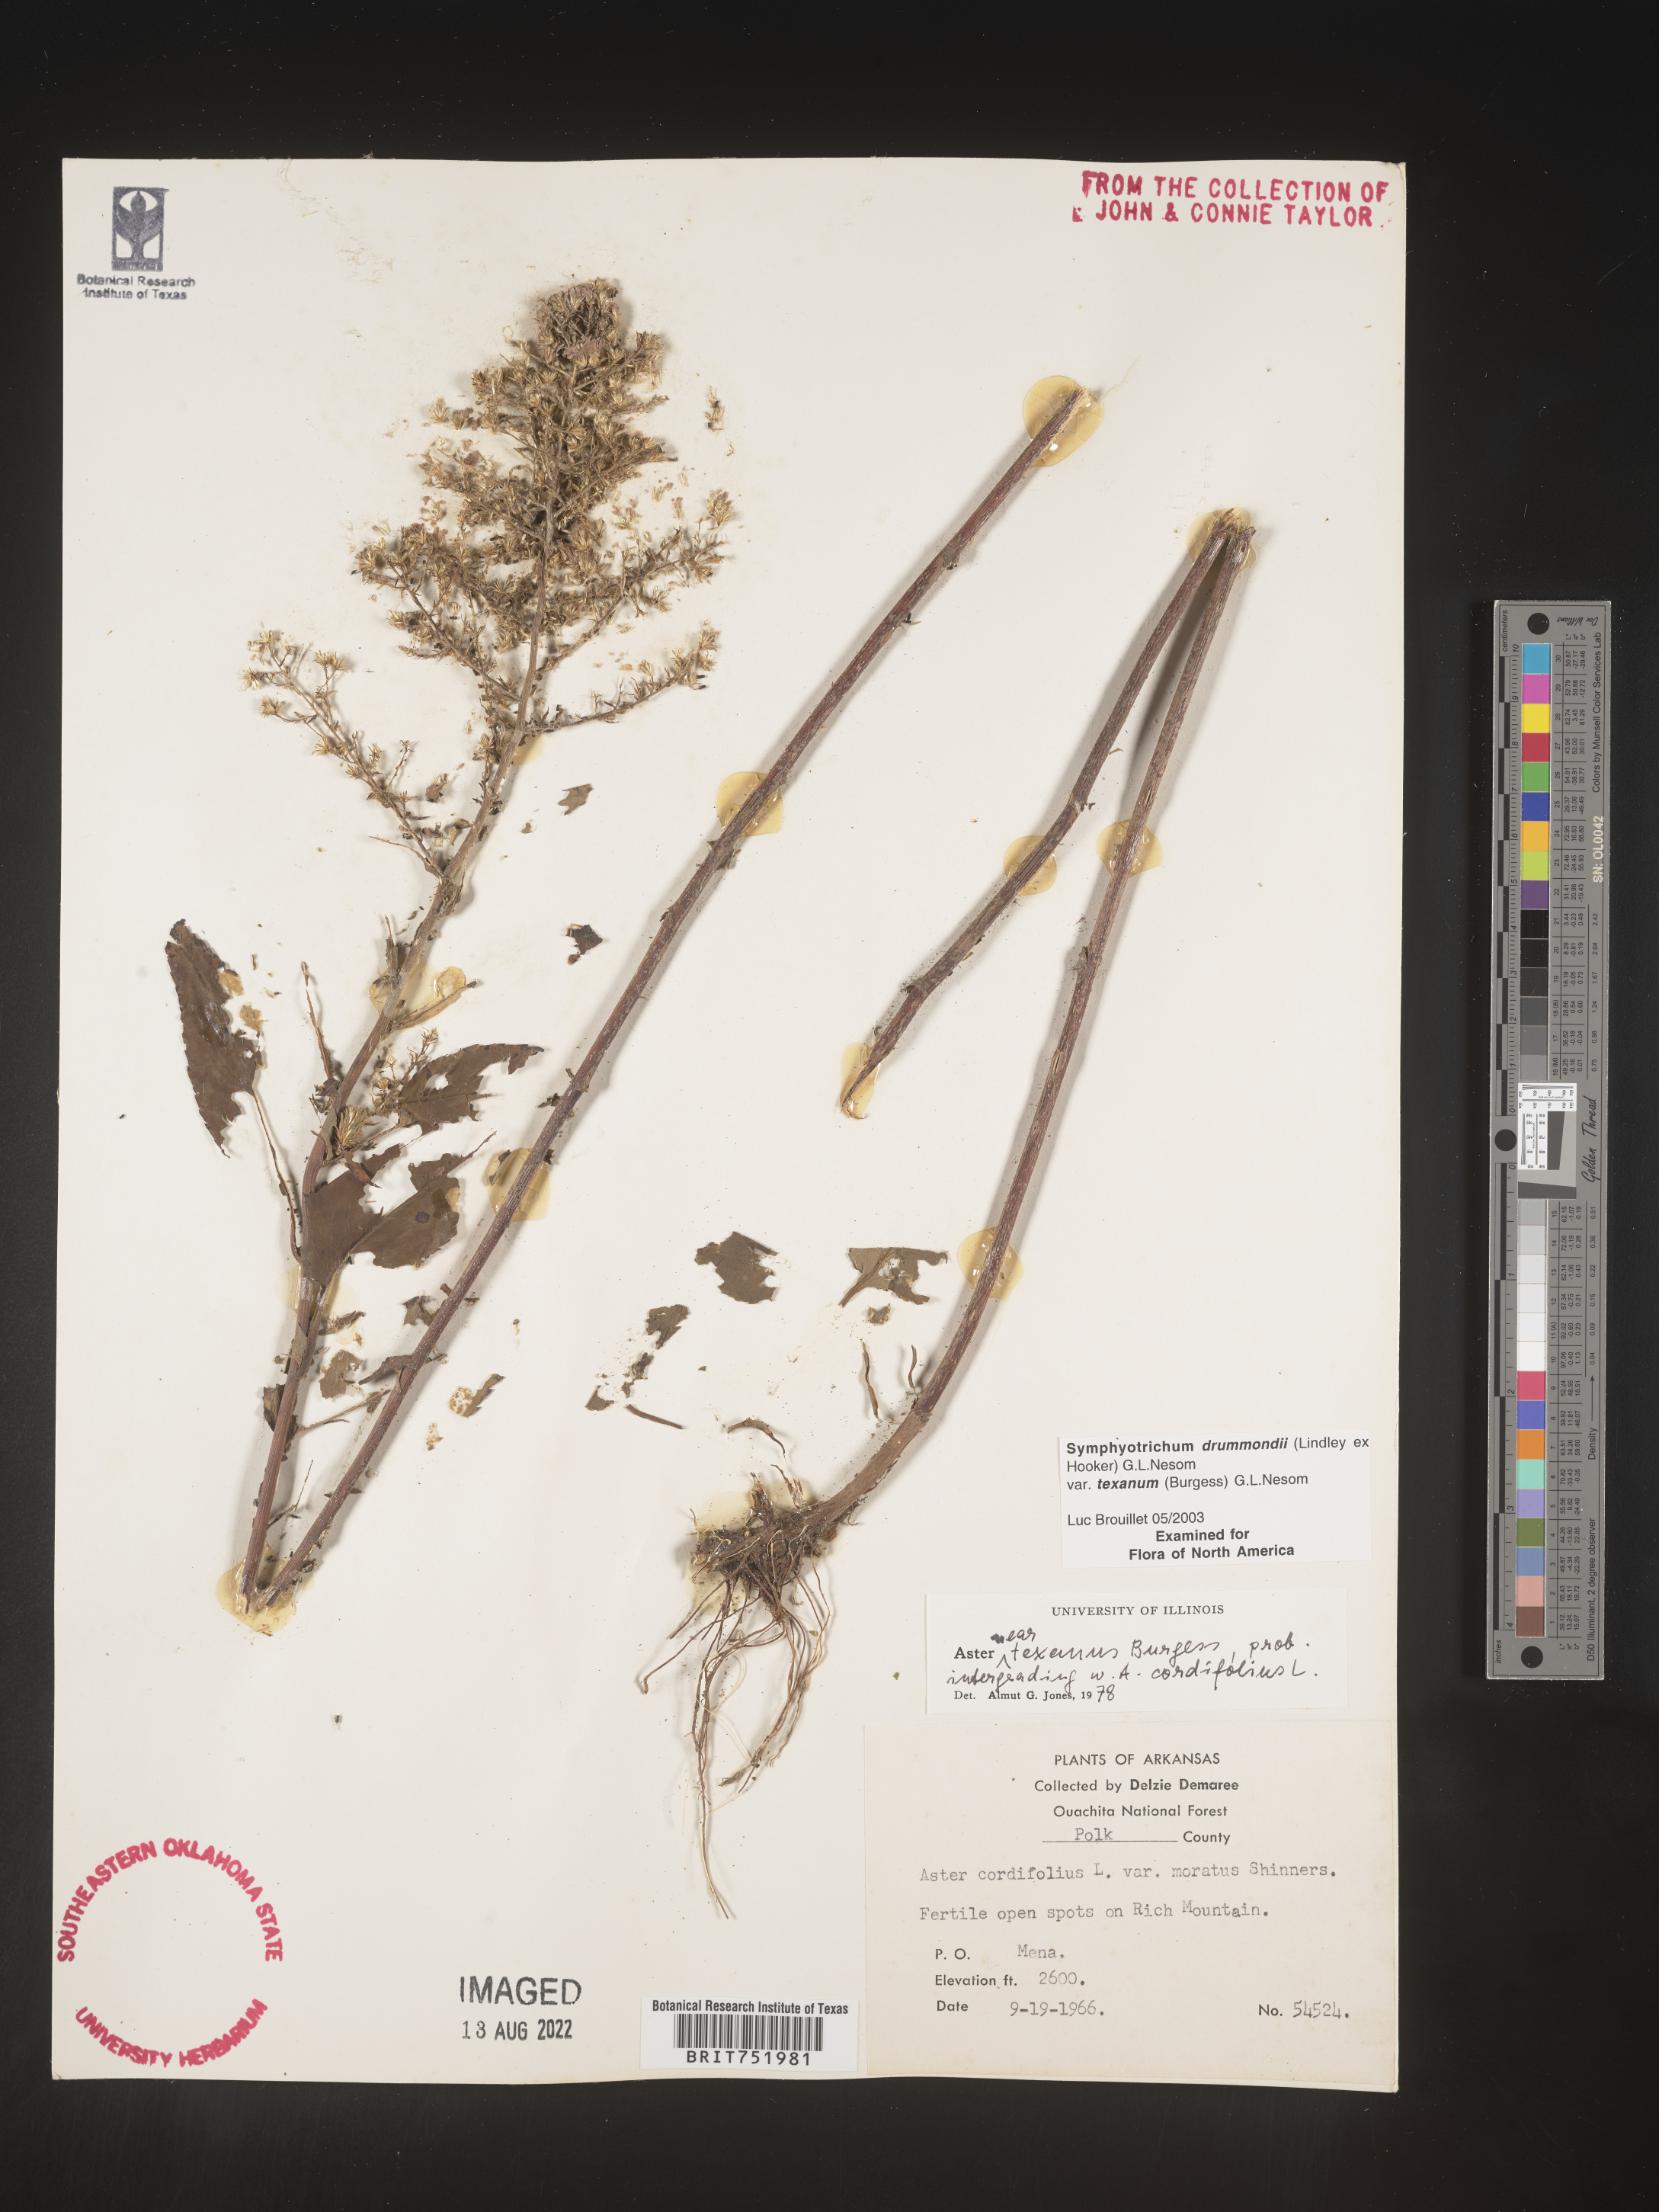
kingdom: Plantae
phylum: Tracheophyta
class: Magnoliopsida
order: Asterales
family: Asteraceae
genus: Symphyotrichum
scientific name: Symphyotrichum drummondii
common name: Drummond's aster
